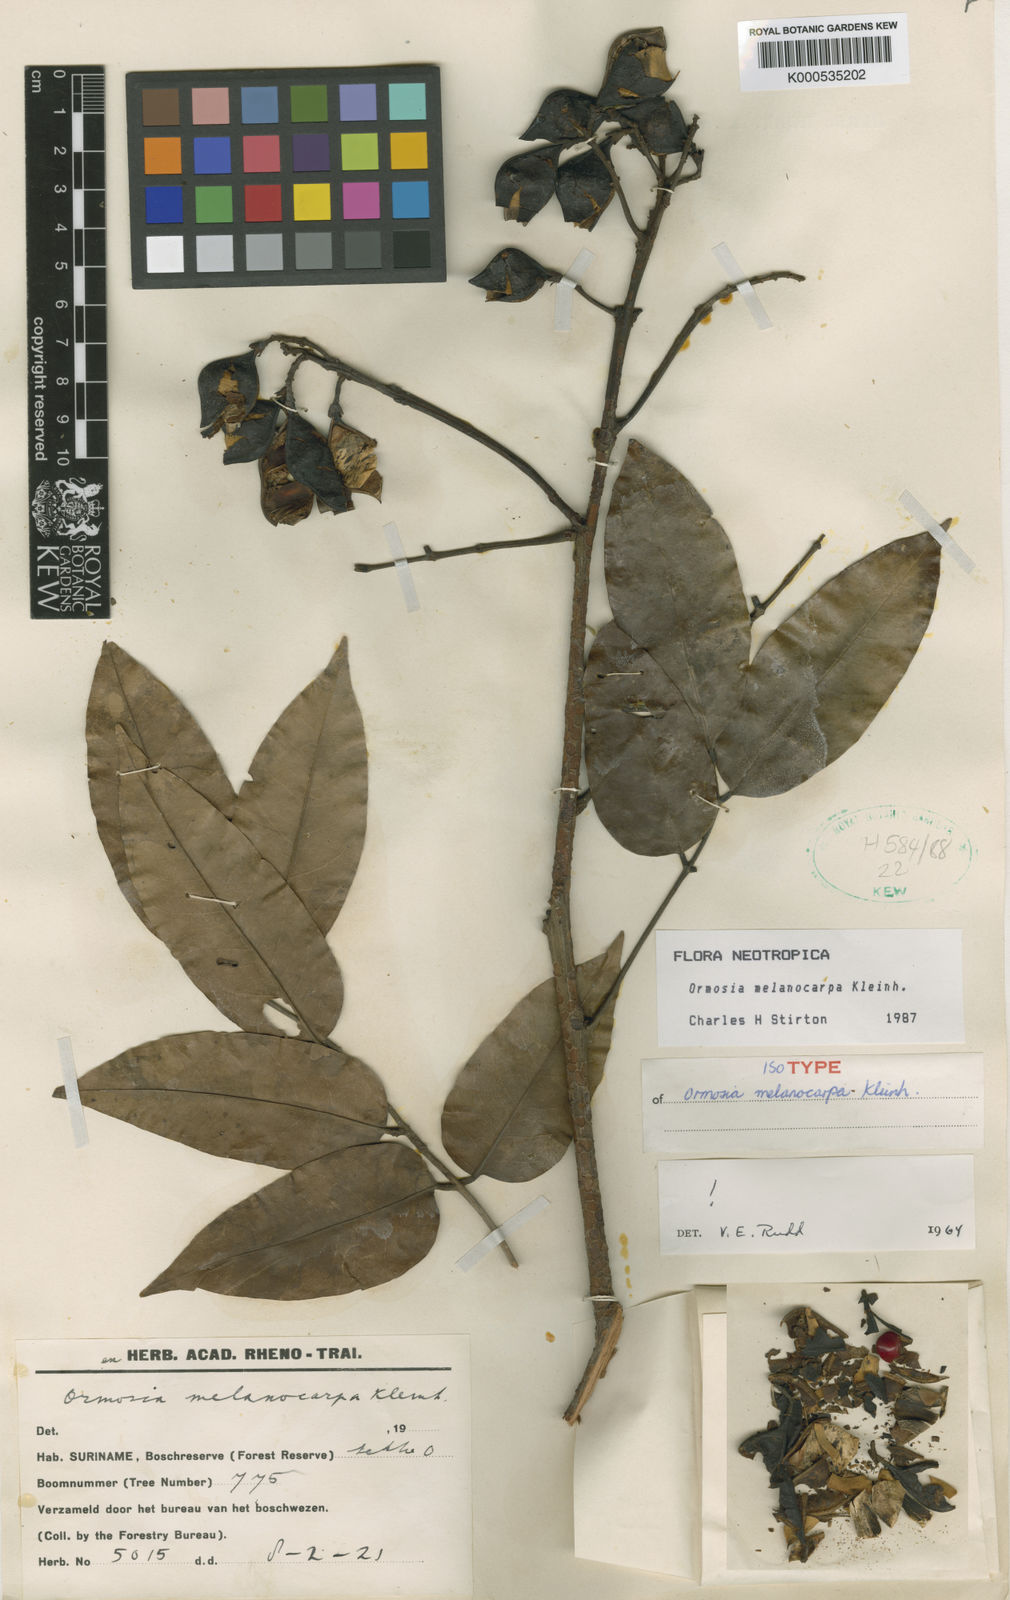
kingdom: Plantae
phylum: Tracheophyta
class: Magnoliopsida
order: Fabales
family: Fabaceae
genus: Ormosia
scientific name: Ormosia melanocarpa
